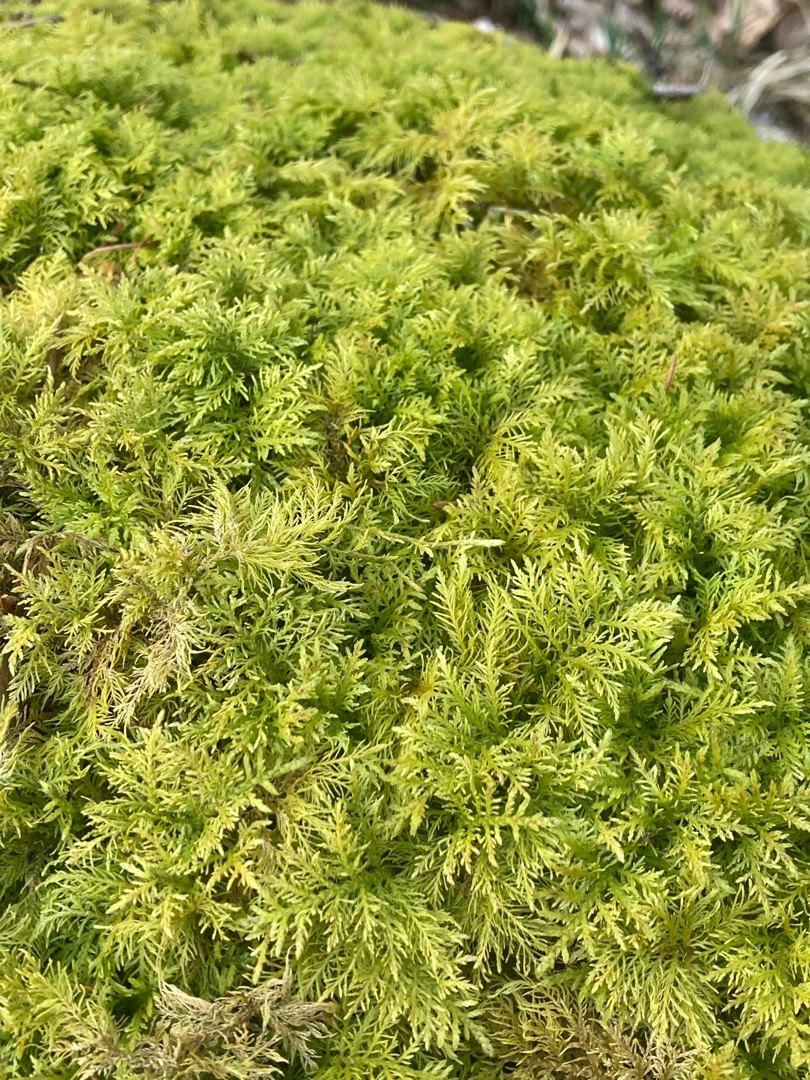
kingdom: Plantae
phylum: Bryophyta
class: Bryopsida
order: Hypnales
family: Thuidiaceae
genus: Thuidium
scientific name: Thuidium tamariscinum
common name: Pryd-bregnemos
